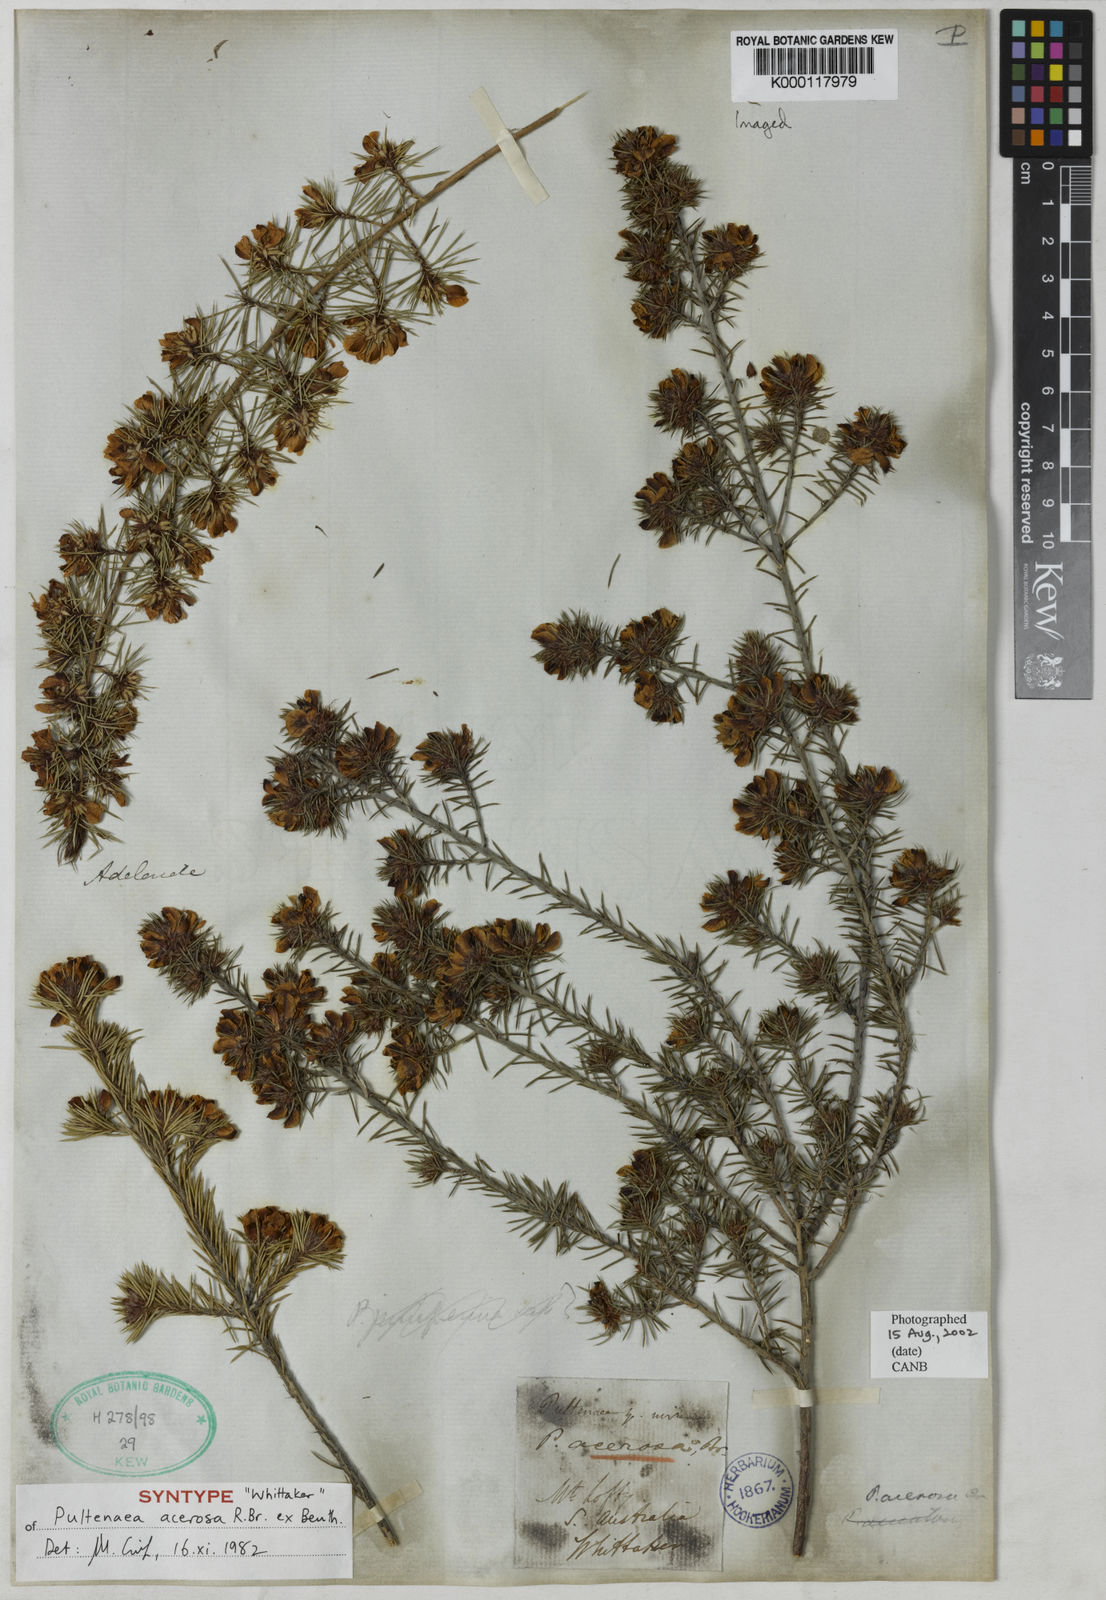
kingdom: Plantae
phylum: Tracheophyta
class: Magnoliopsida
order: Fabales
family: Fabaceae
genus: Pultenaea
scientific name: Pultenaea acerosa
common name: Bristly bush-pea
